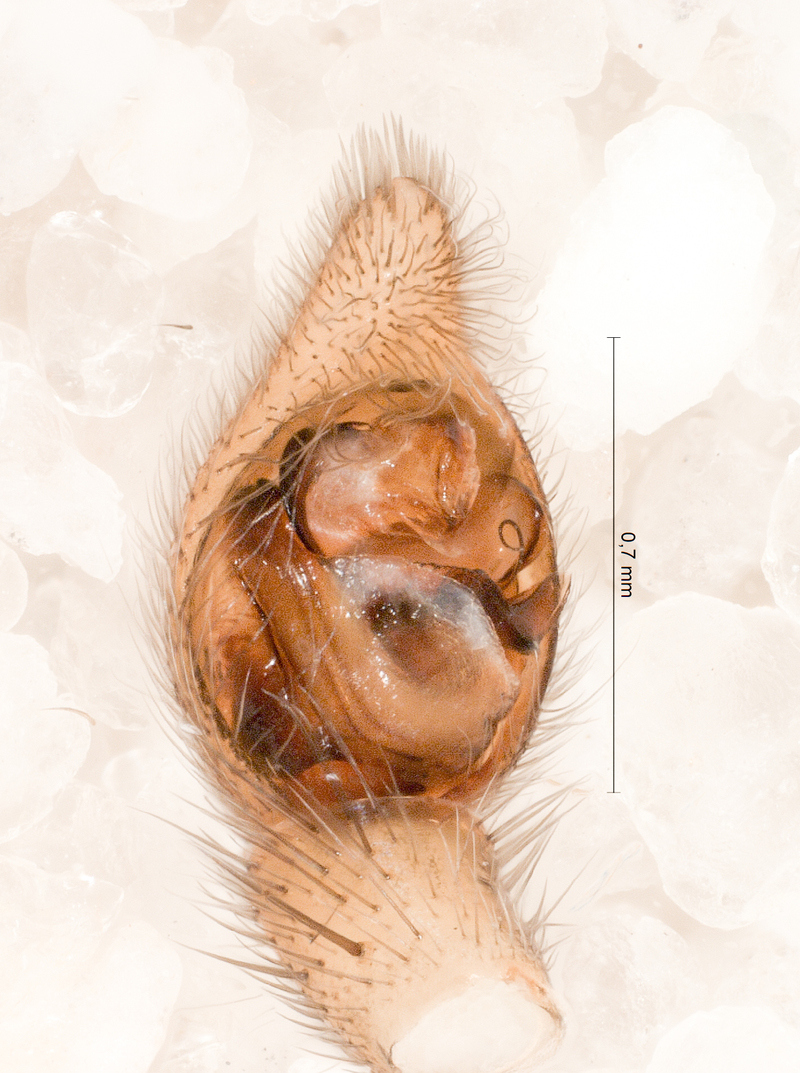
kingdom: Animalia
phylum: Arthropoda
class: Arachnida
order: Araneae
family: Lycosidae
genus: Trochosa
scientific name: Trochosa terricola
